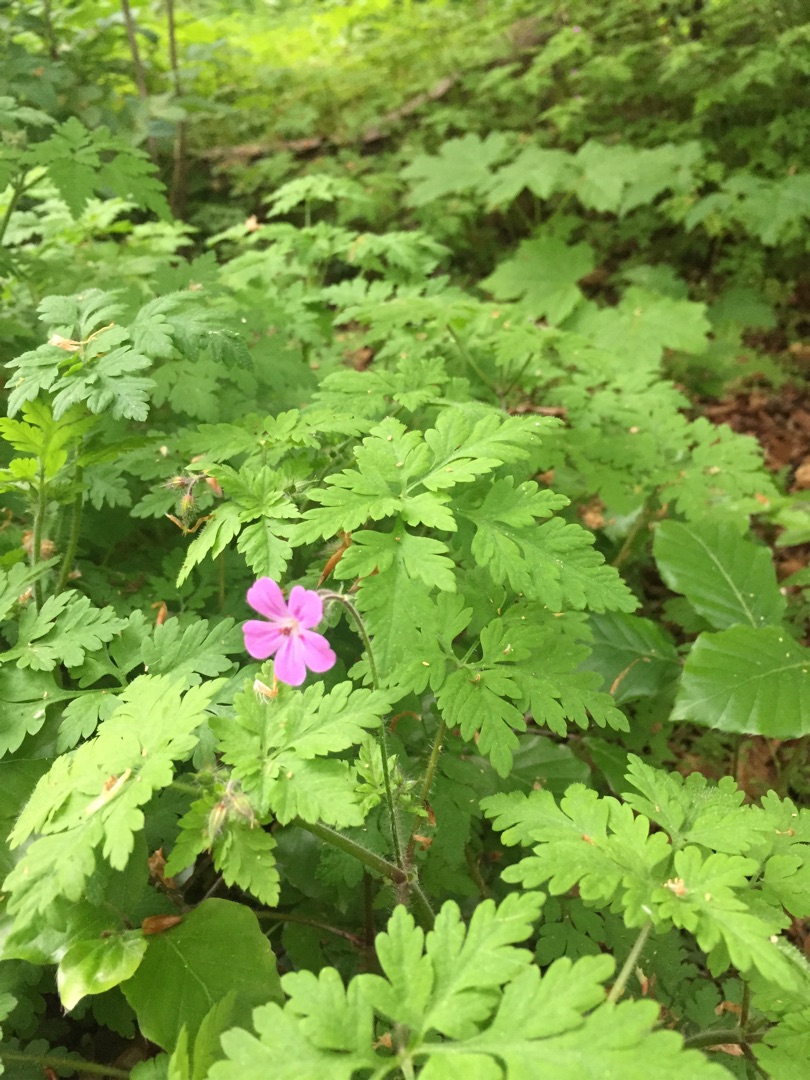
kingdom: Plantae
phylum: Tracheophyta
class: Magnoliopsida
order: Geraniales
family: Geraniaceae
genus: Geranium
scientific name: Geranium robertianum
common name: Stinkende storkenæb
